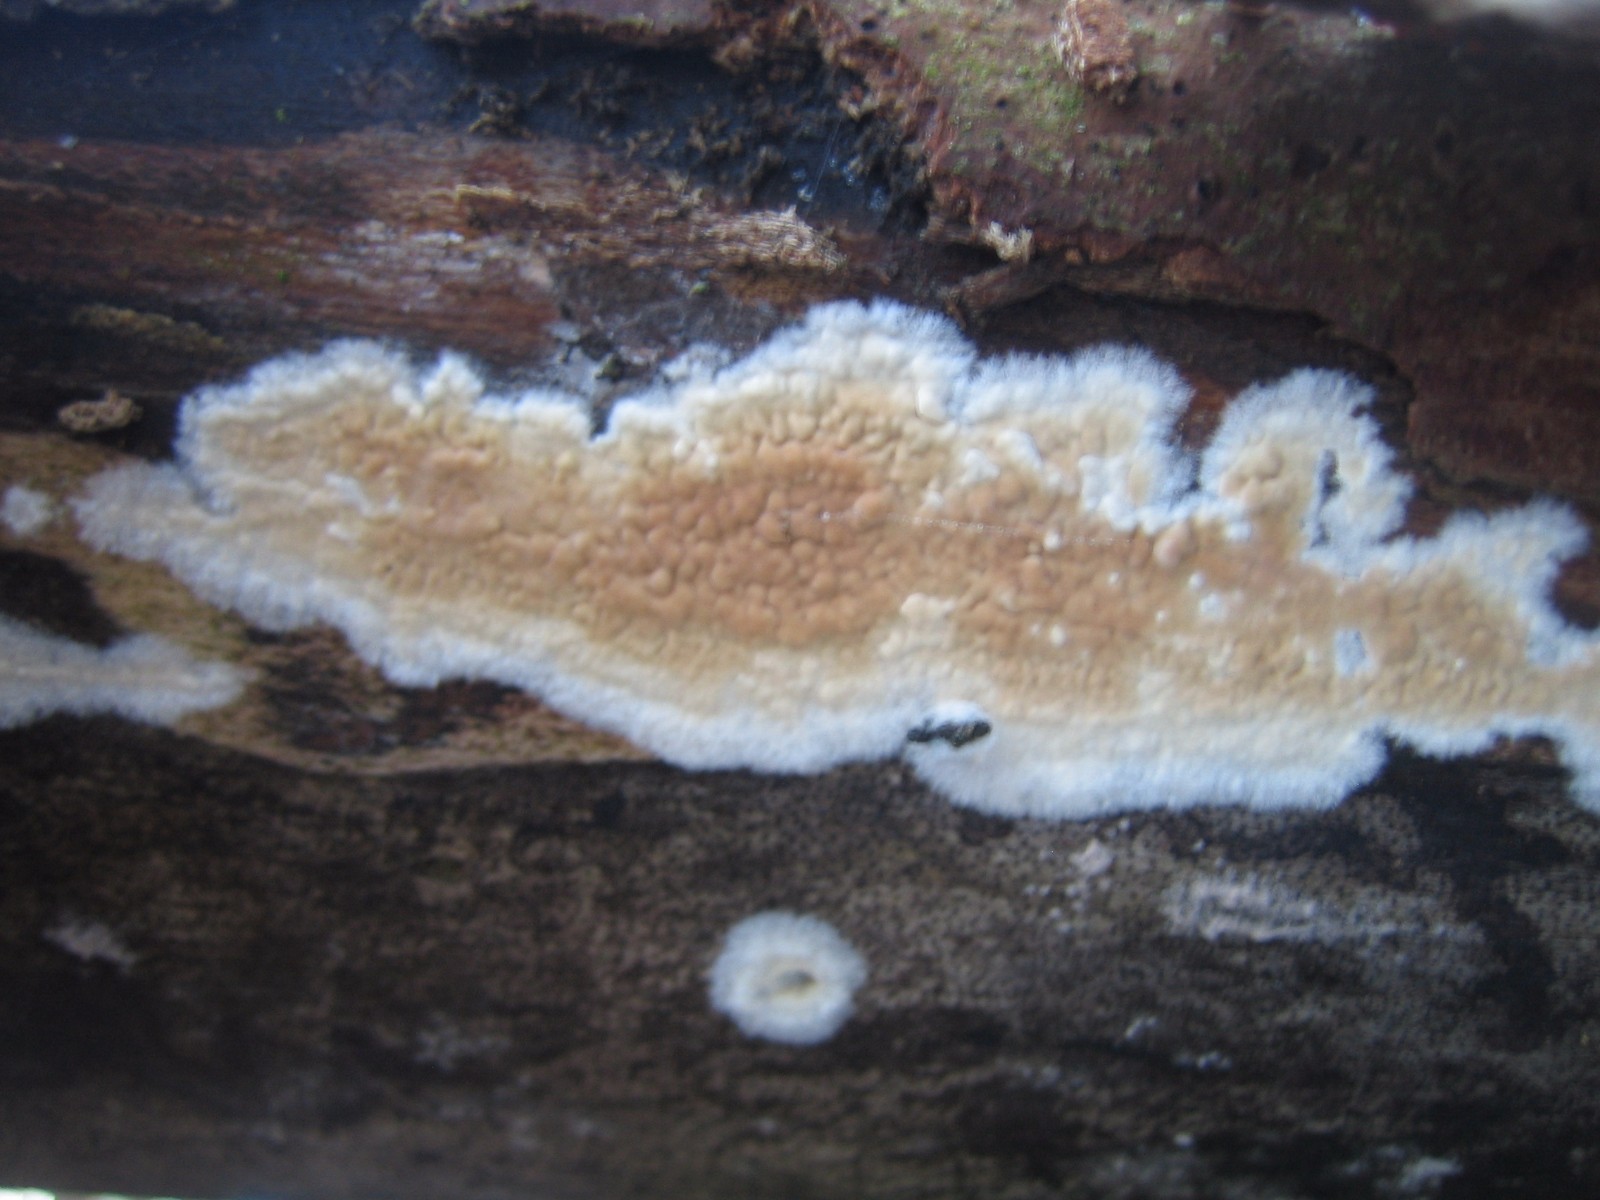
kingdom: Fungi
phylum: Basidiomycota
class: Agaricomycetes
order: Agaricales
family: Physalacriaceae
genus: Cylindrobasidium
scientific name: Cylindrobasidium evolvens
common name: sprækkehinde
